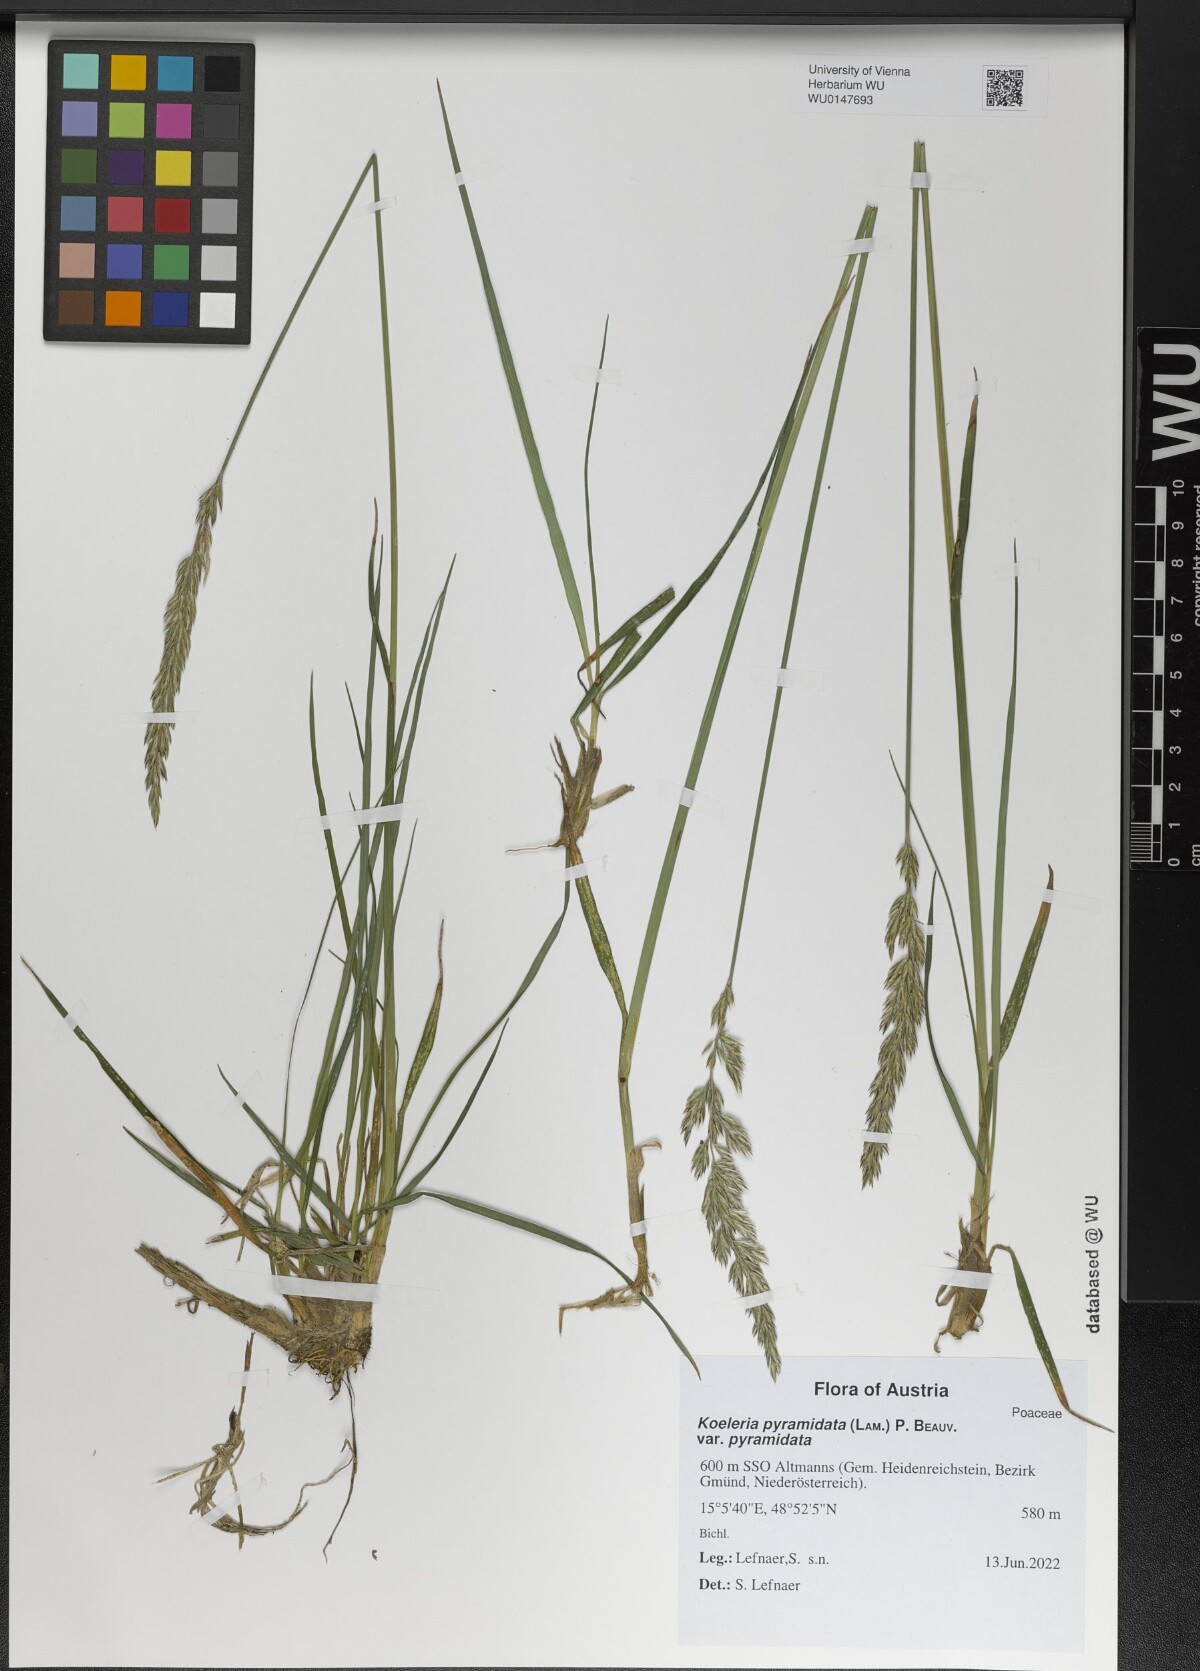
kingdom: Plantae
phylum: Tracheophyta
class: Liliopsida
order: Poales
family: Poaceae
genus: Koeleria
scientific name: Koeleria pyramidata
